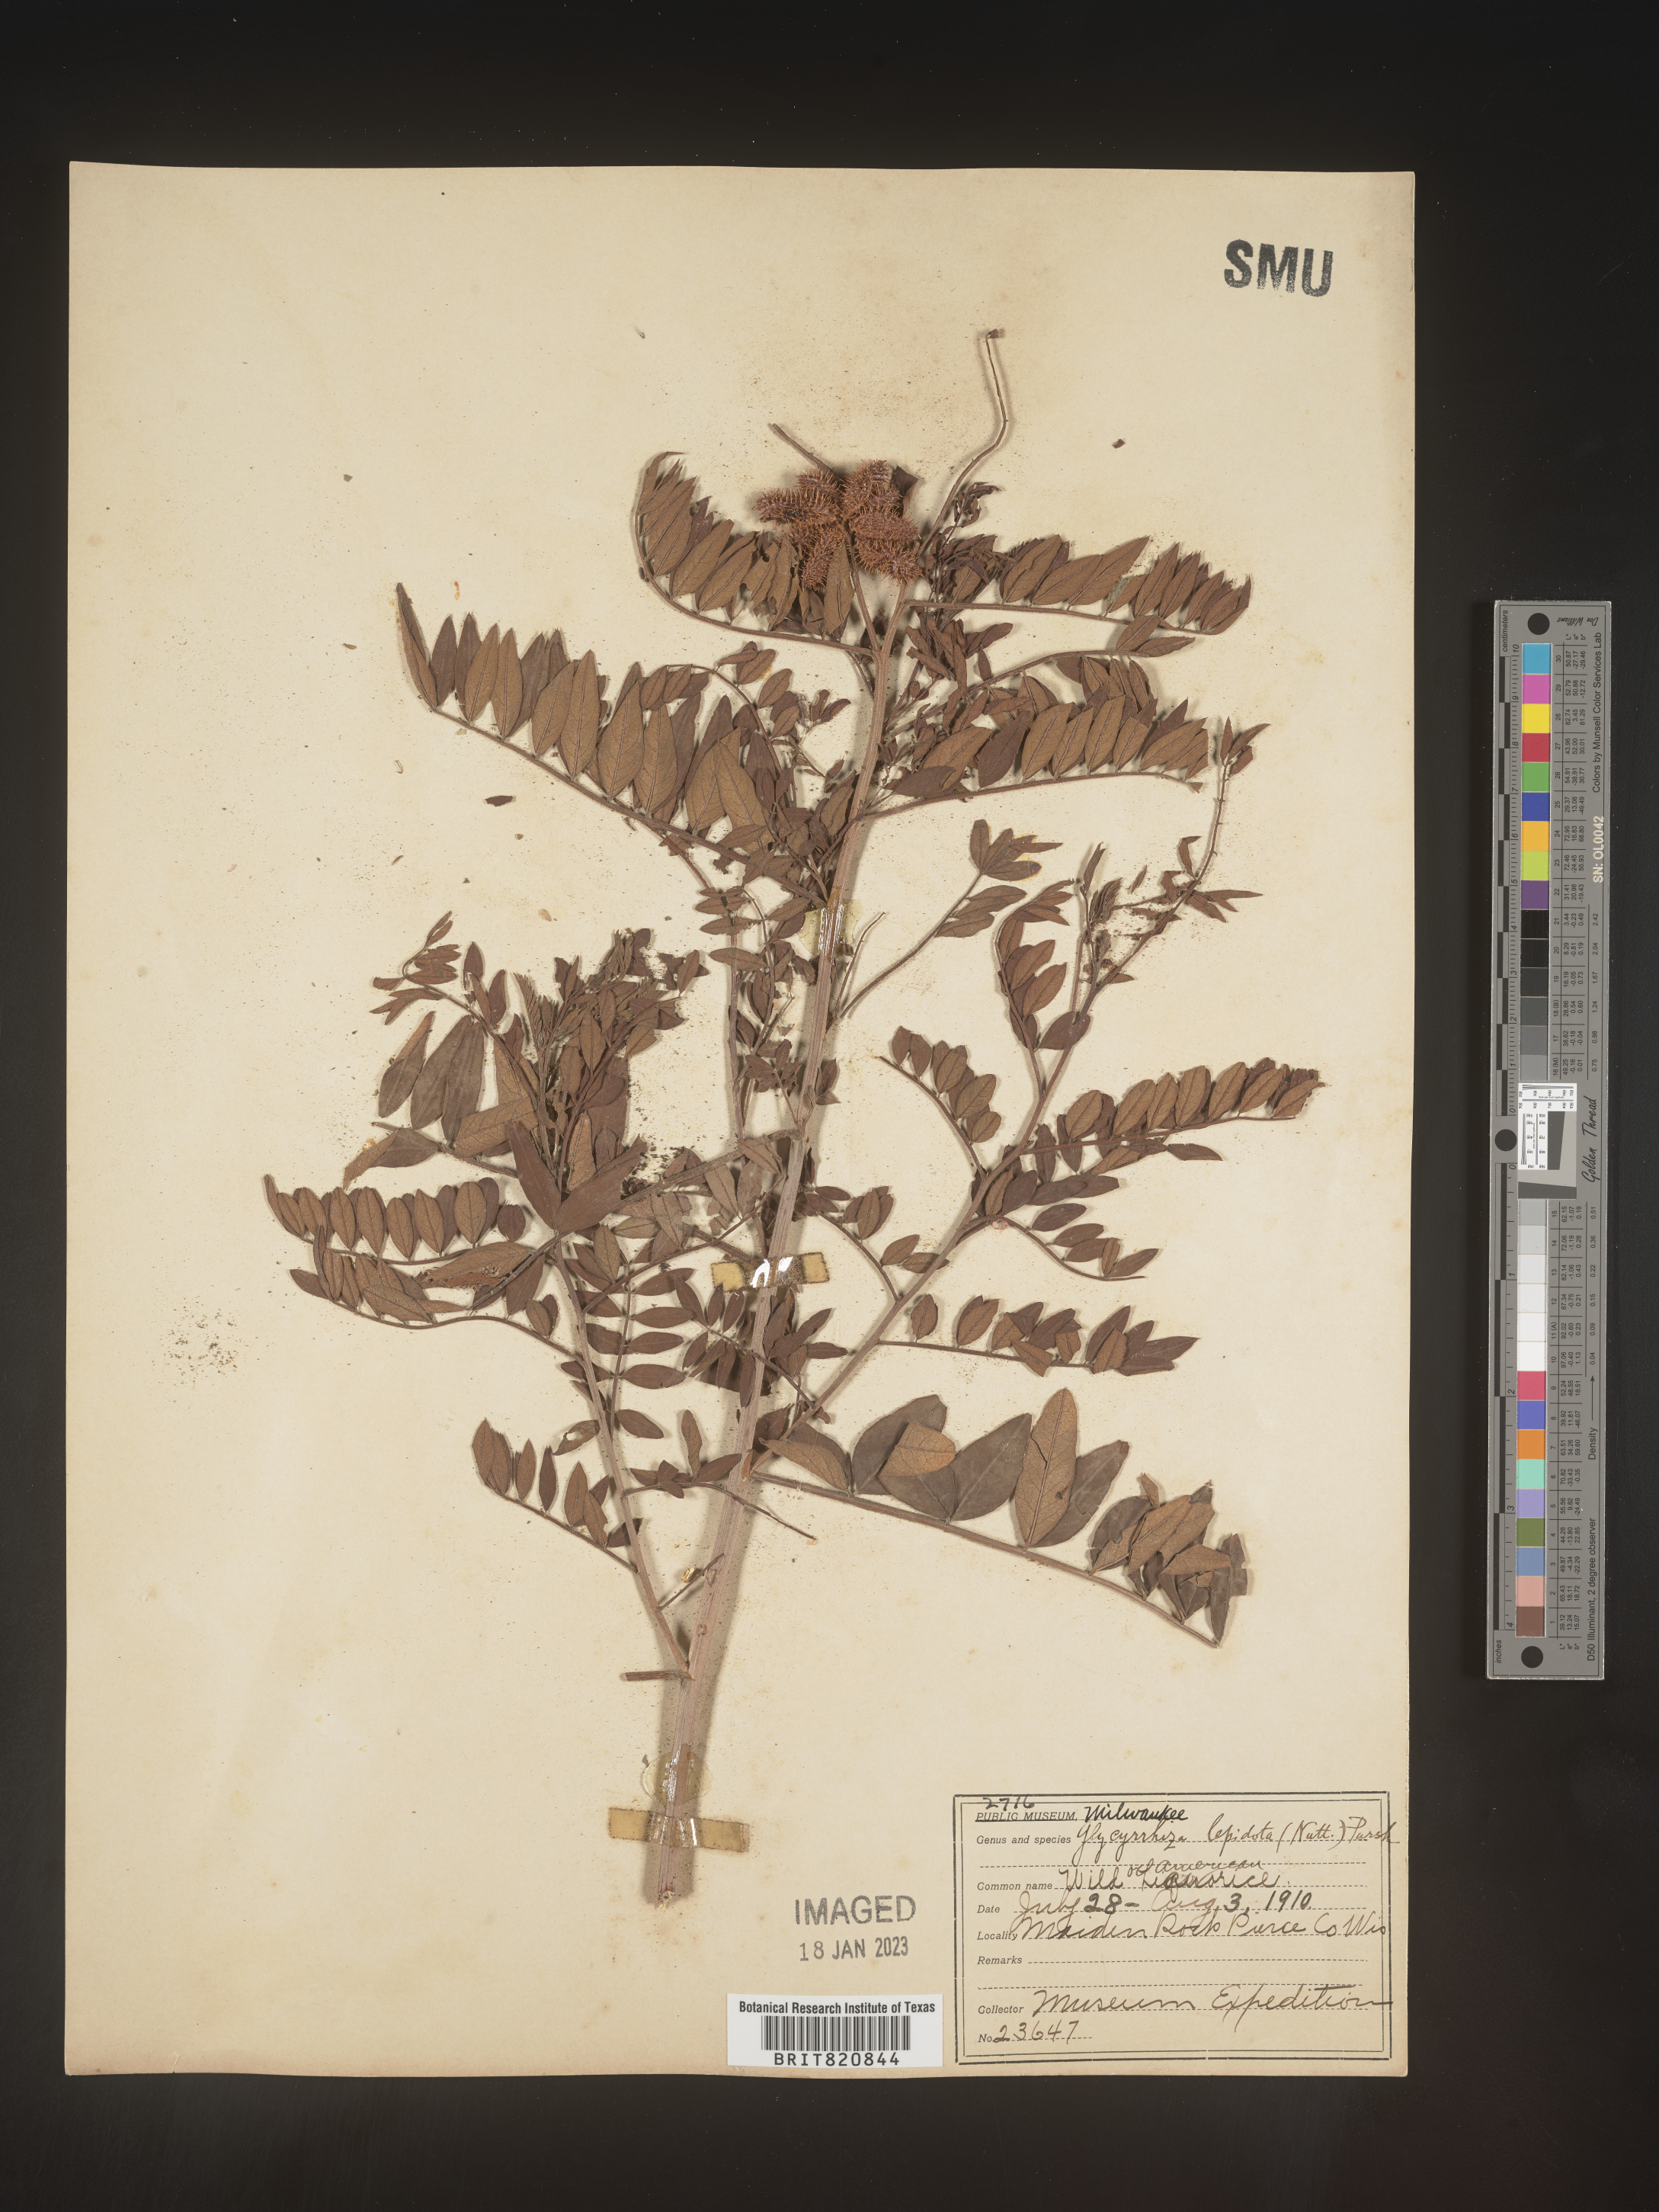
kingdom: Plantae
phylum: Tracheophyta
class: Magnoliopsida
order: Fabales
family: Fabaceae
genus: Glycyrrhiza
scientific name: Glycyrrhiza lepidota
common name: American liquorice
